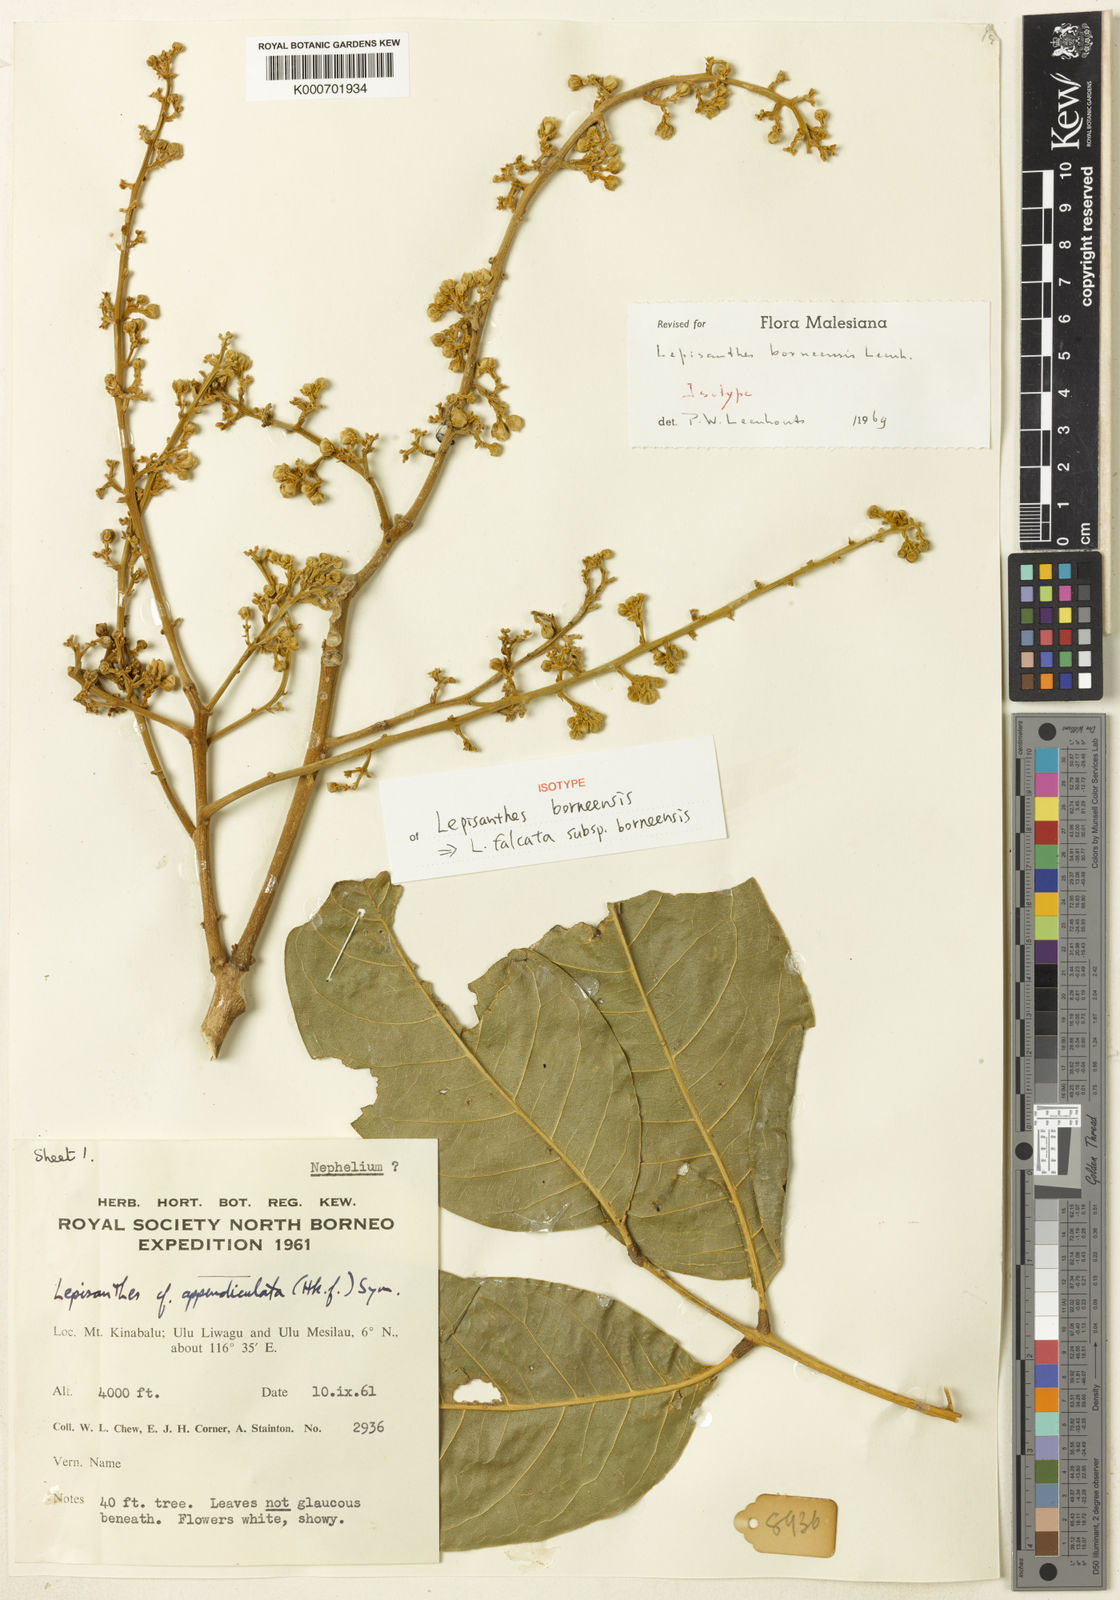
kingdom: Plantae
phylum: Tracheophyta
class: Magnoliopsida
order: Sapindales
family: Sapindaceae
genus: Lepisanthes
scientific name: Lepisanthes falcata
